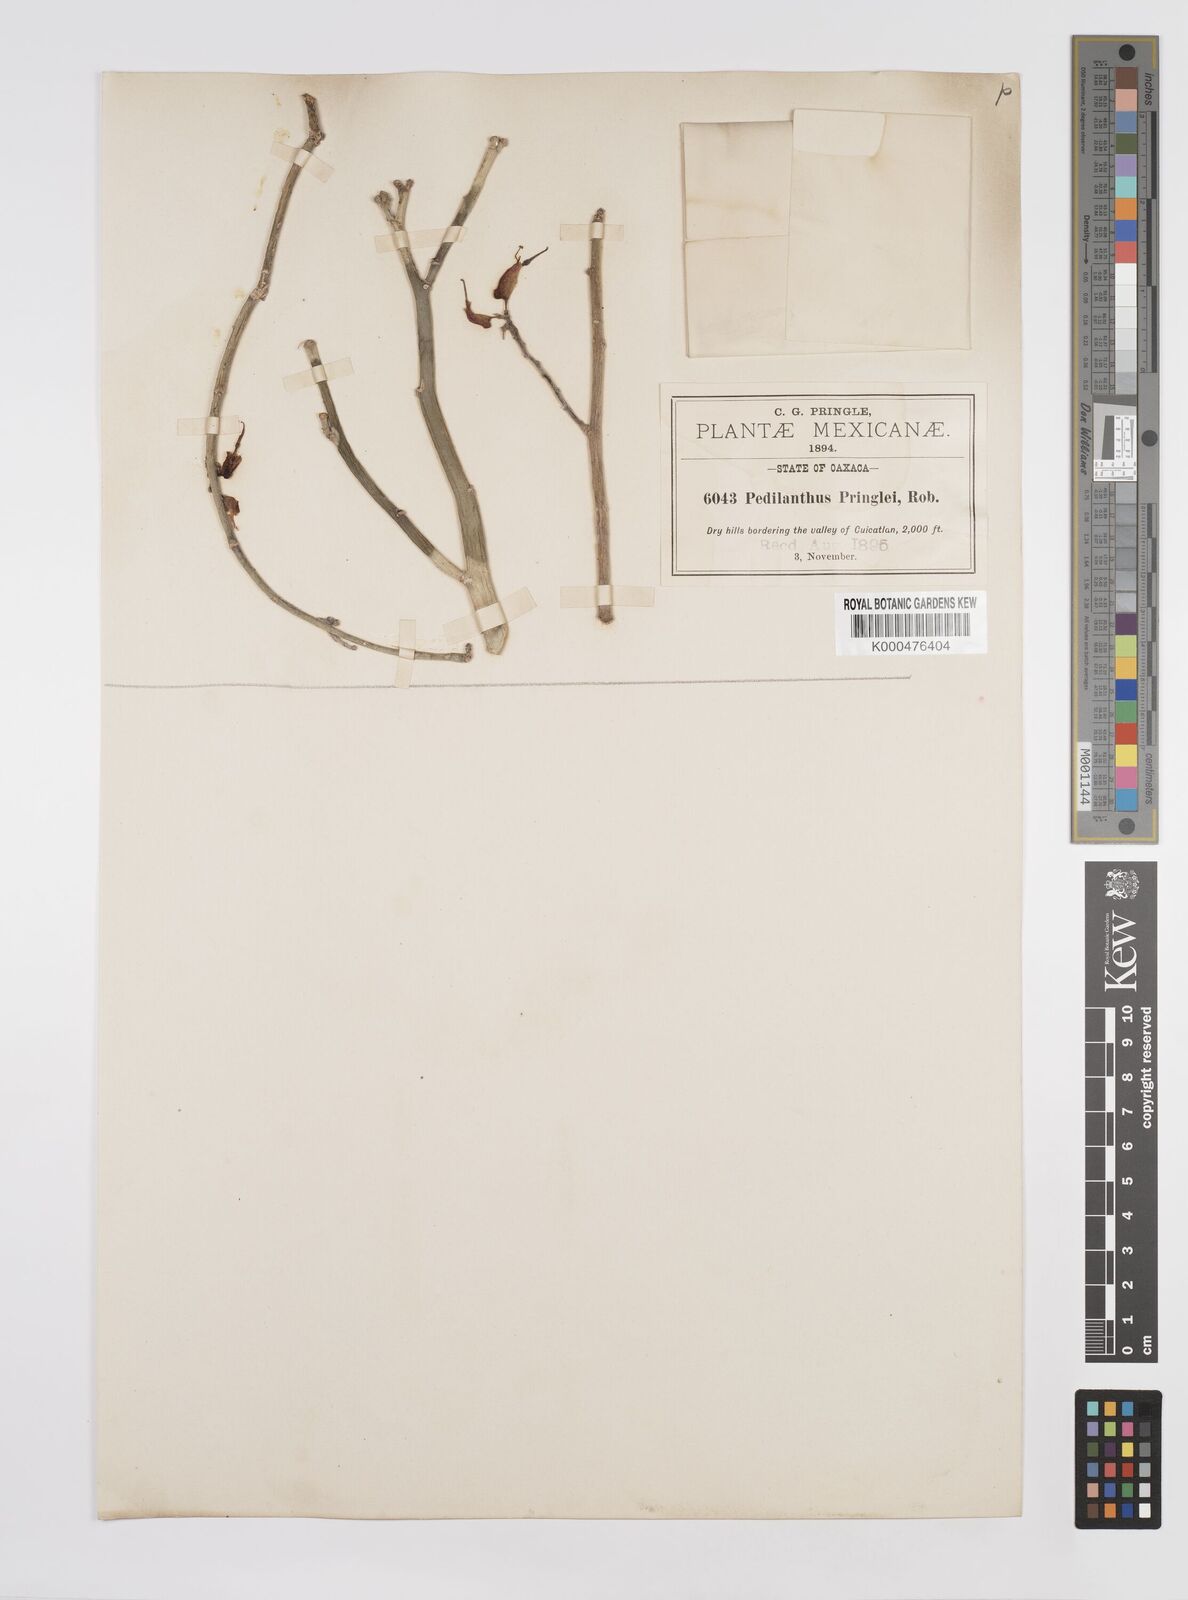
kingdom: Plantae
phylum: Tracheophyta
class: Magnoliopsida
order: Malpighiales
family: Euphorbiaceae
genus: Euphorbia
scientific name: Euphorbia tithymaloides
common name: Slipperplant
